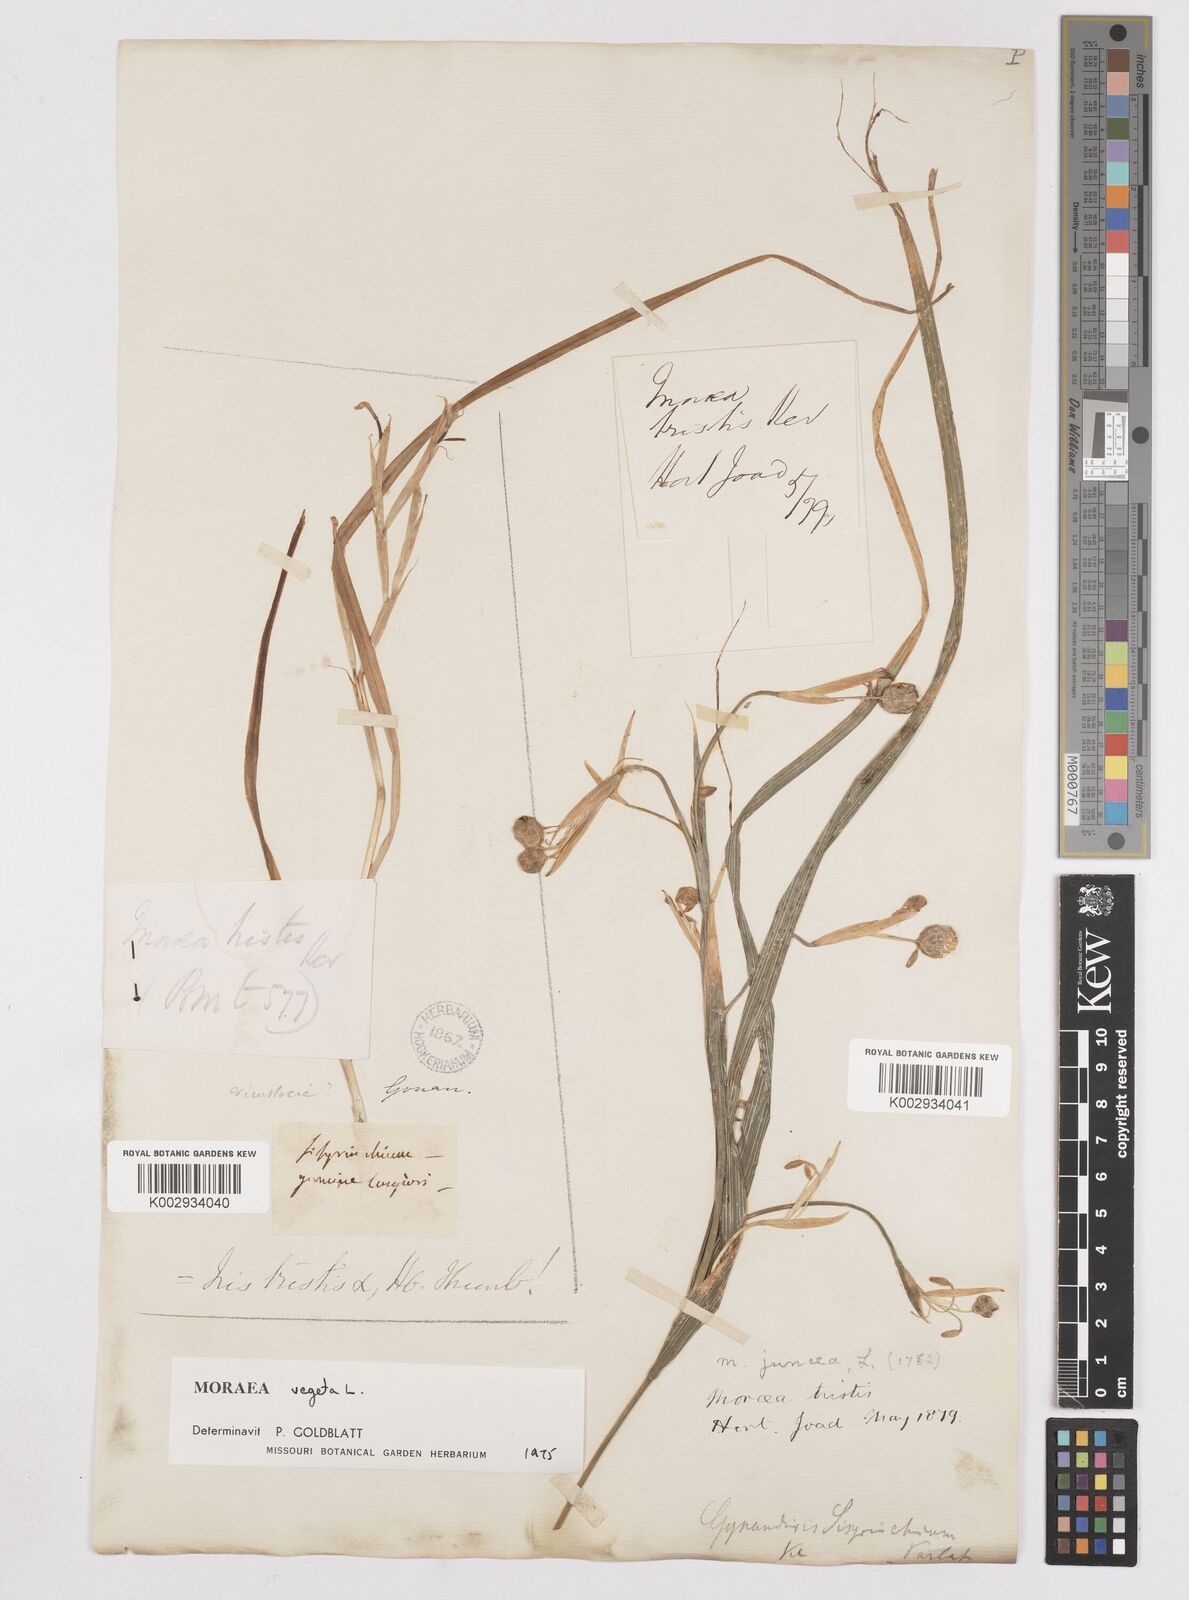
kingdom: Plantae
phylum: Tracheophyta
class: Liliopsida
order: Asparagales
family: Iridaceae
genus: Moraea
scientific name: Moraea vegeta
